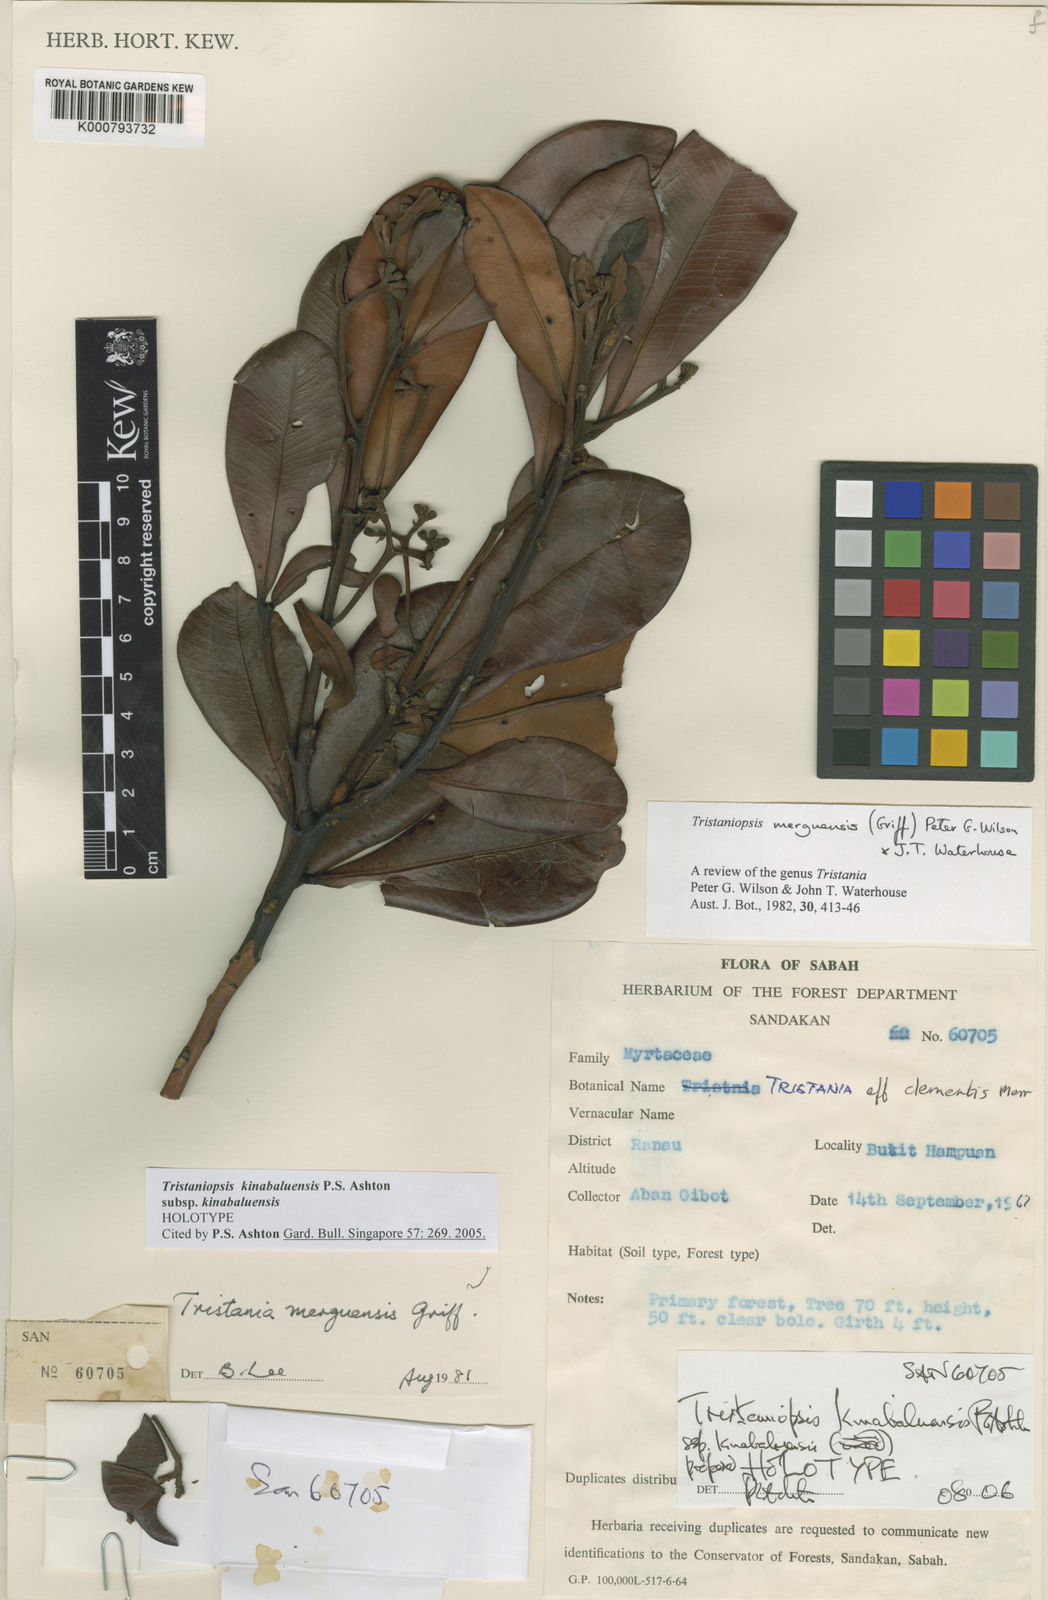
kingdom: Plantae
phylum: Tracheophyta
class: Magnoliopsida
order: Myrtales
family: Myrtaceae
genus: Tristaniopsis
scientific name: Tristaniopsis kinabaluensis
